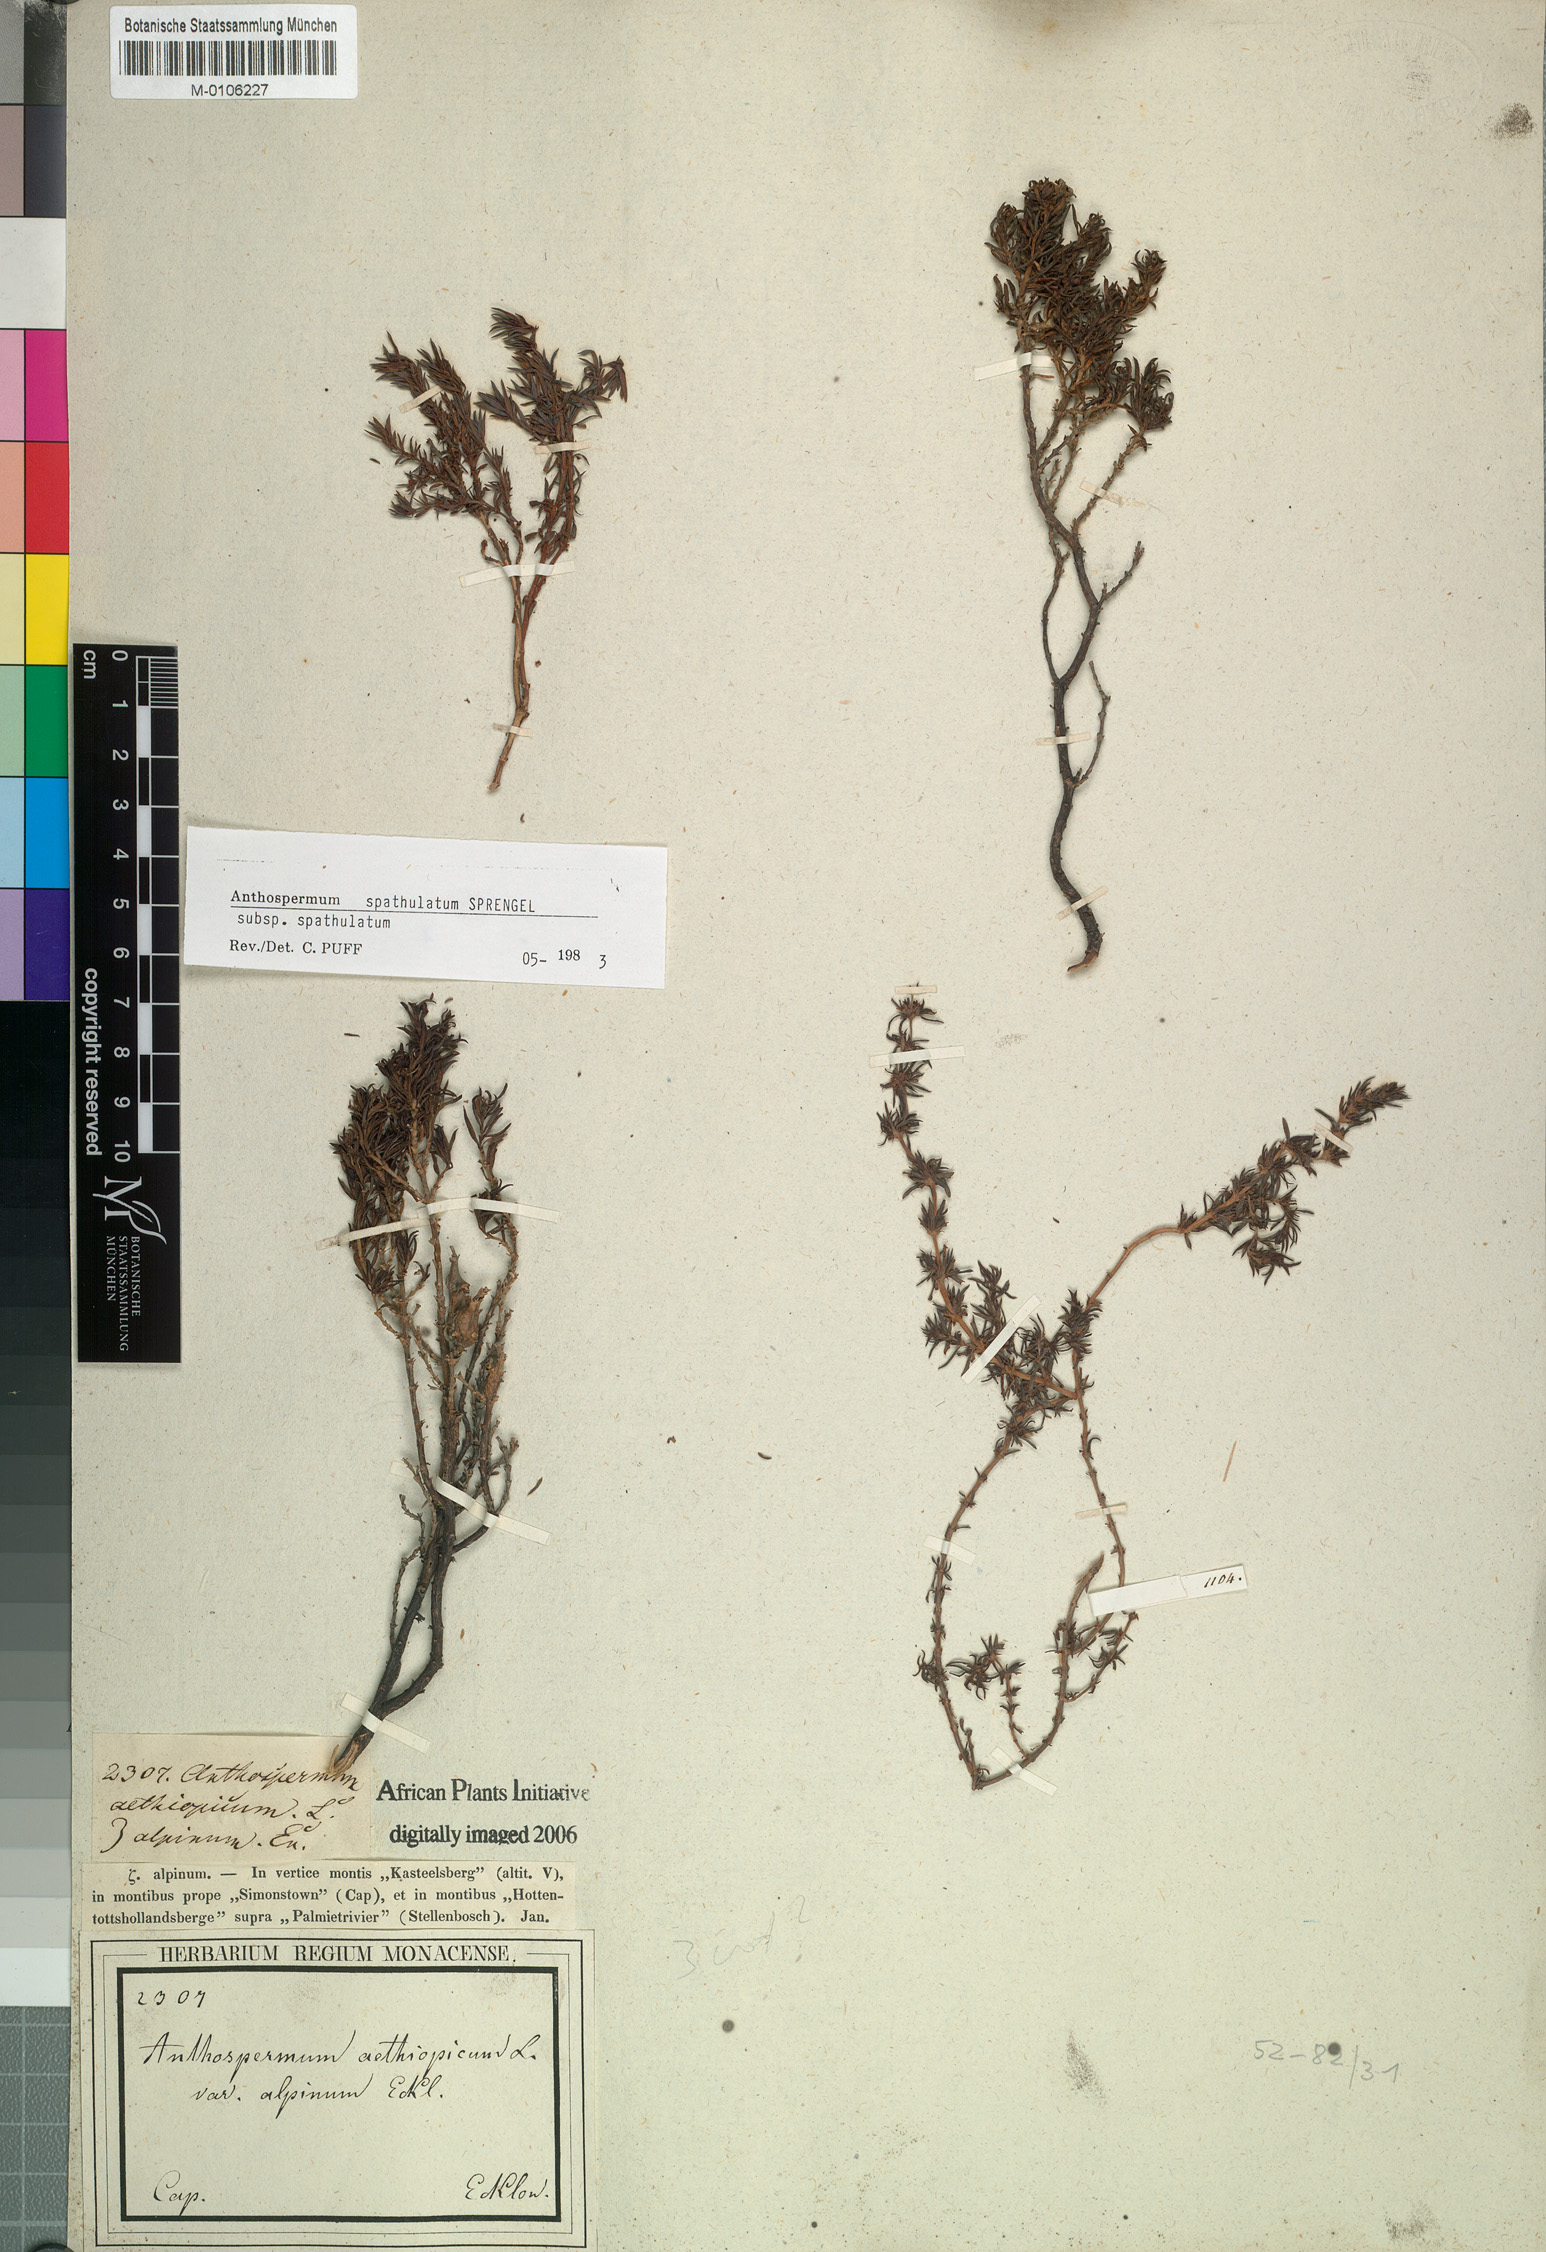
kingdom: Plantae
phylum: Tracheophyta
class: Magnoliopsida
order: Gentianales
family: Rubiaceae
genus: Anthospermum
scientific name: Anthospermum spathulatum
